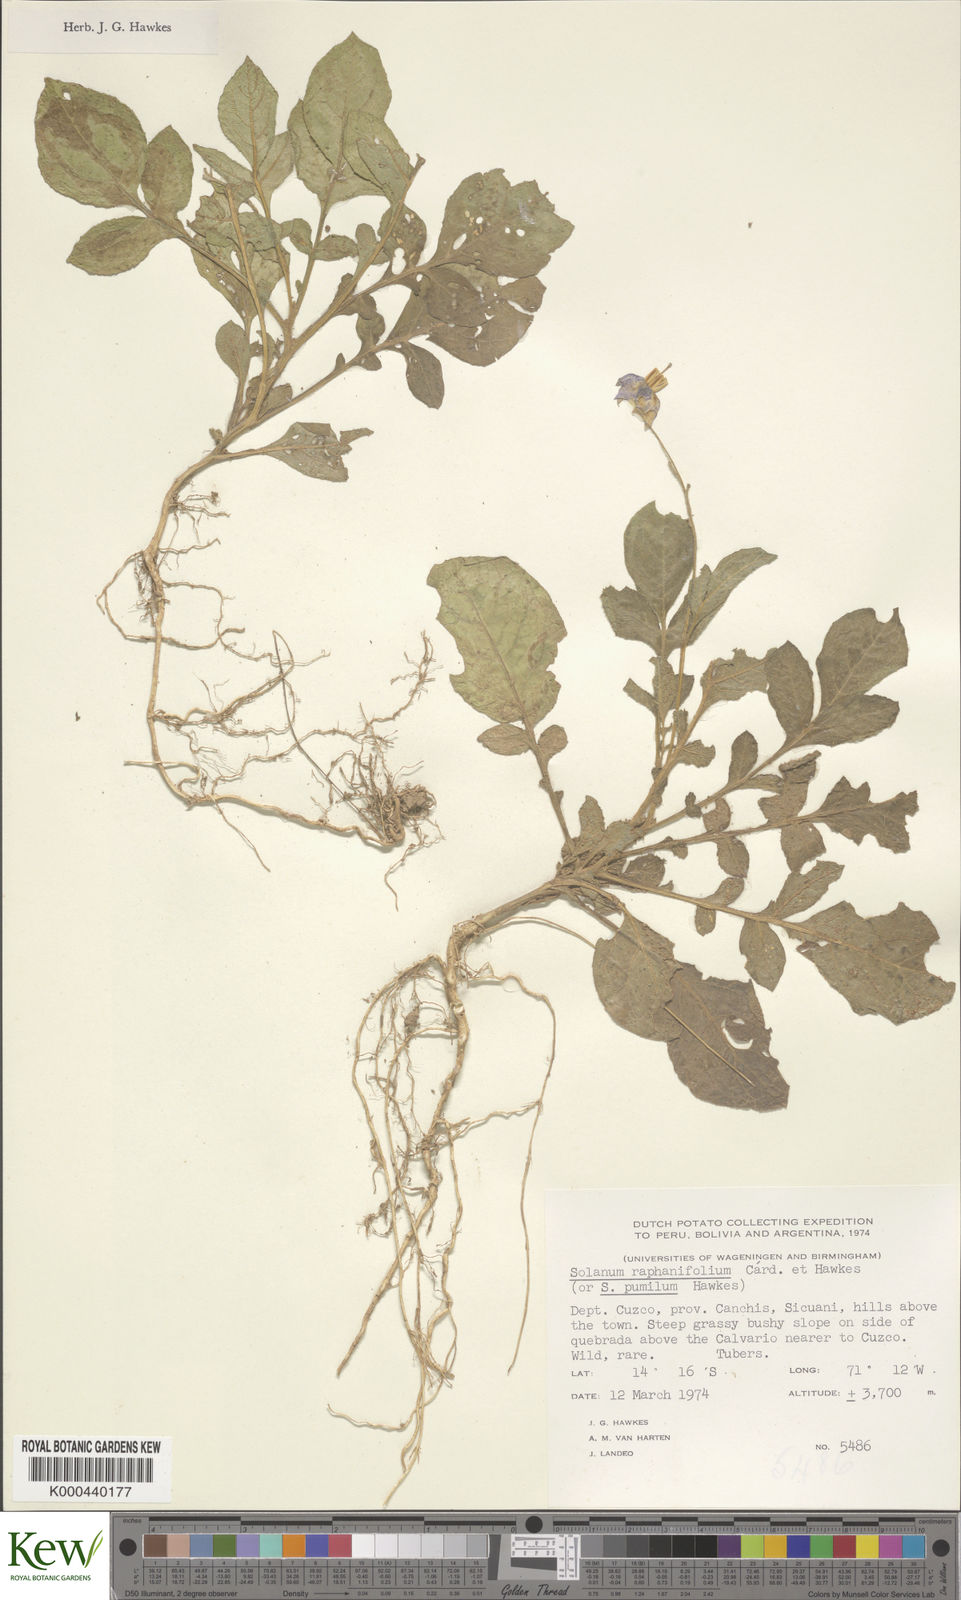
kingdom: Plantae
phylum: Tracheophyta
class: Magnoliopsida
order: Solanales
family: Solanaceae
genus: Solanum
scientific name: Solanum raphanifolium
